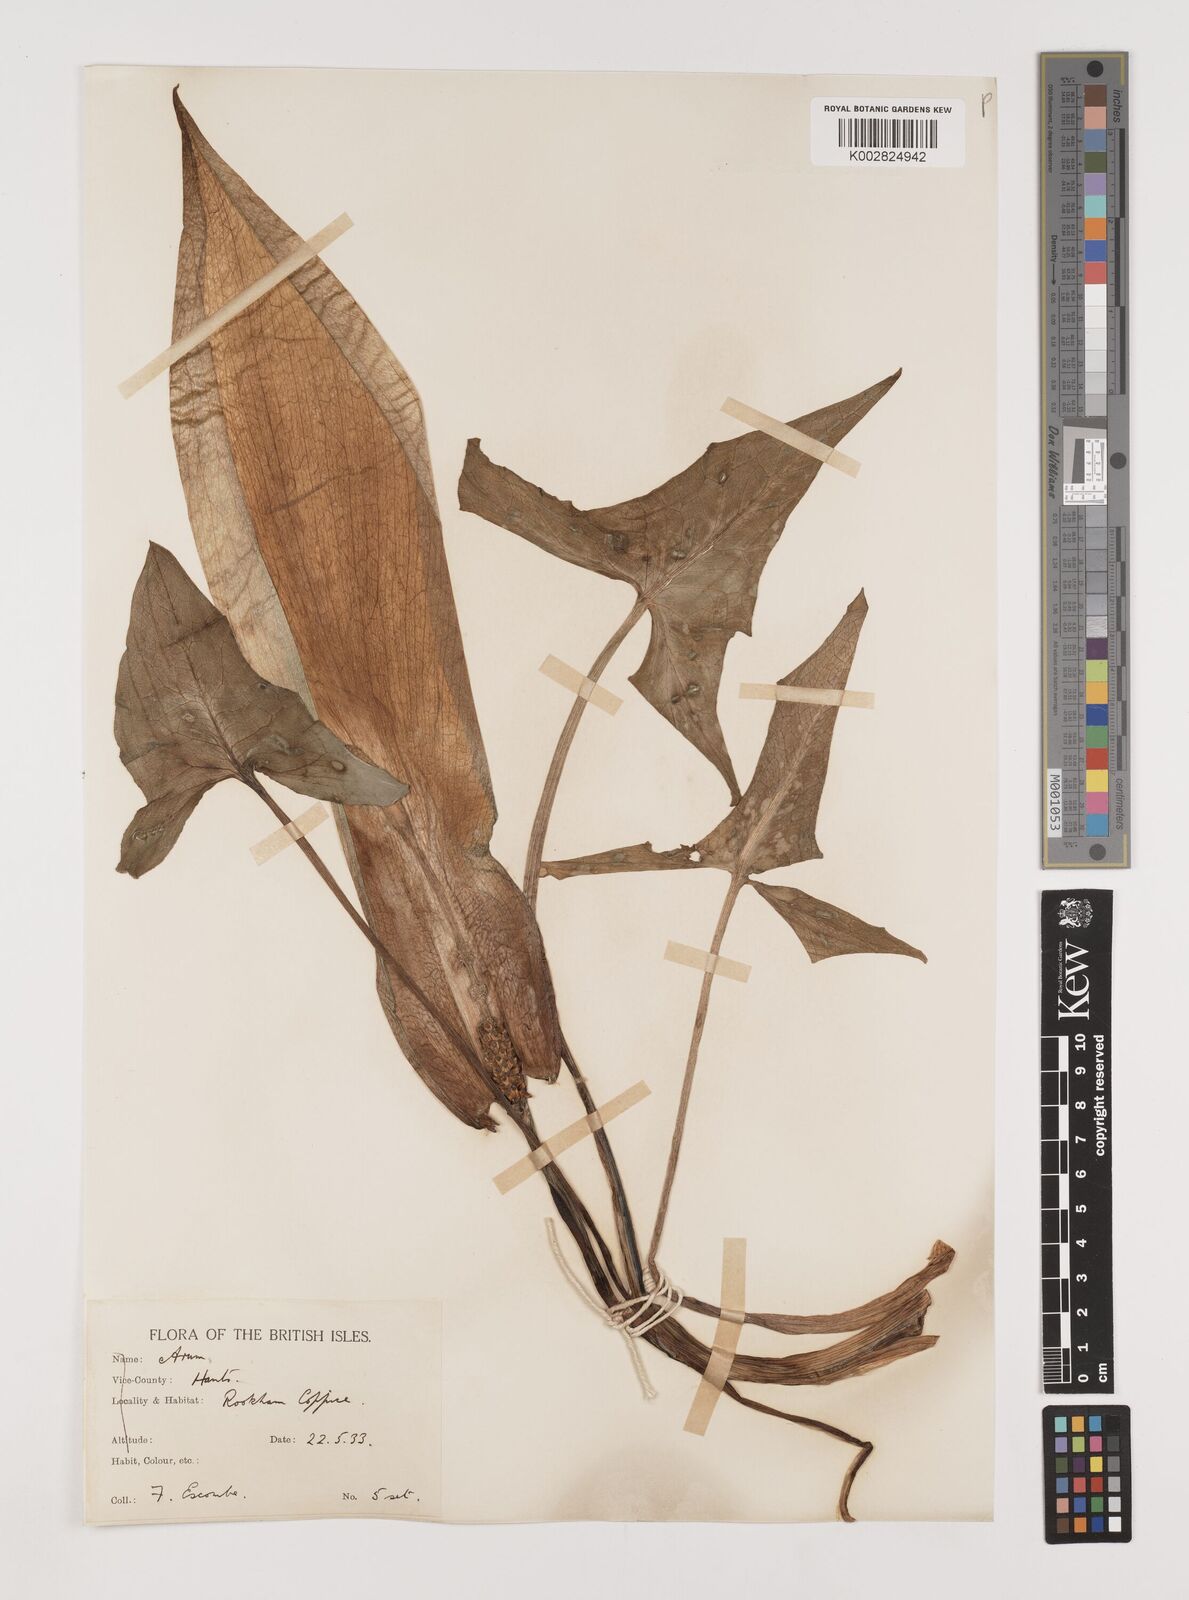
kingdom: Plantae
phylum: Tracheophyta
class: Liliopsida
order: Alismatales
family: Araceae
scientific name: Araceae
